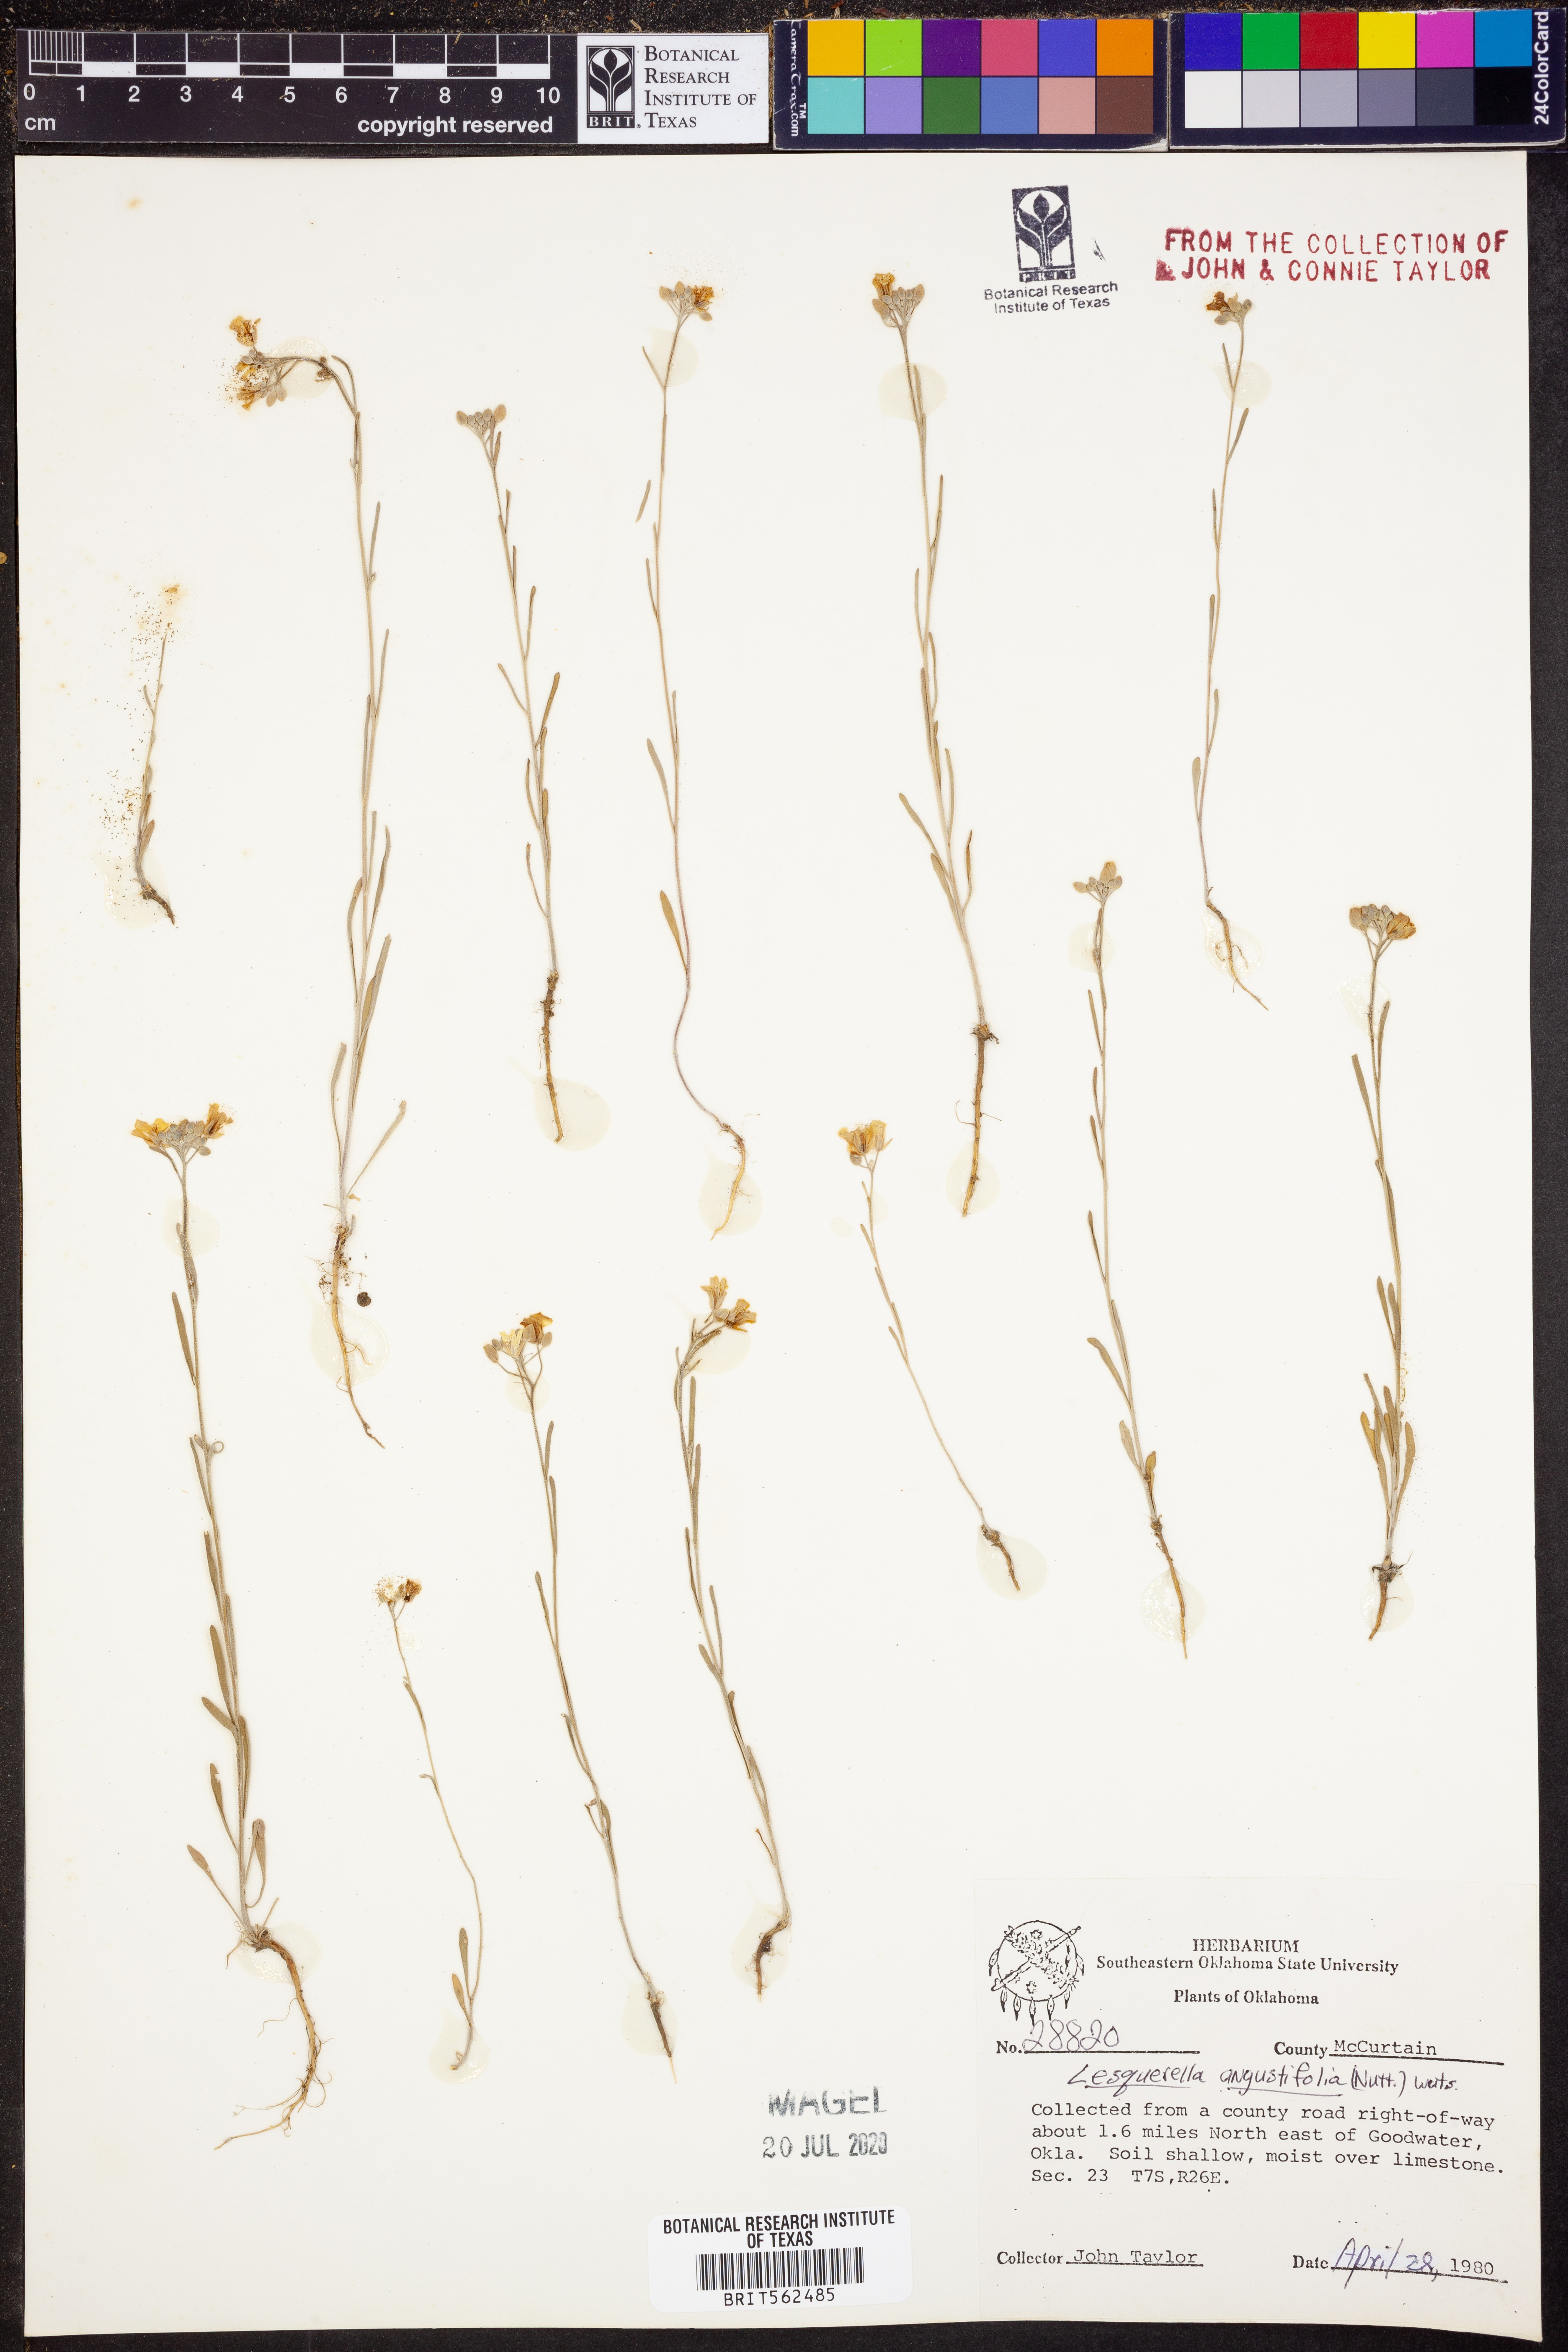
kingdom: Plantae
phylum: Tracheophyta
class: Magnoliopsida
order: Brassicales
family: Brassicaceae
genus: Physaria
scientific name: Physaria angustifolia
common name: Threadleaf bladderpod
